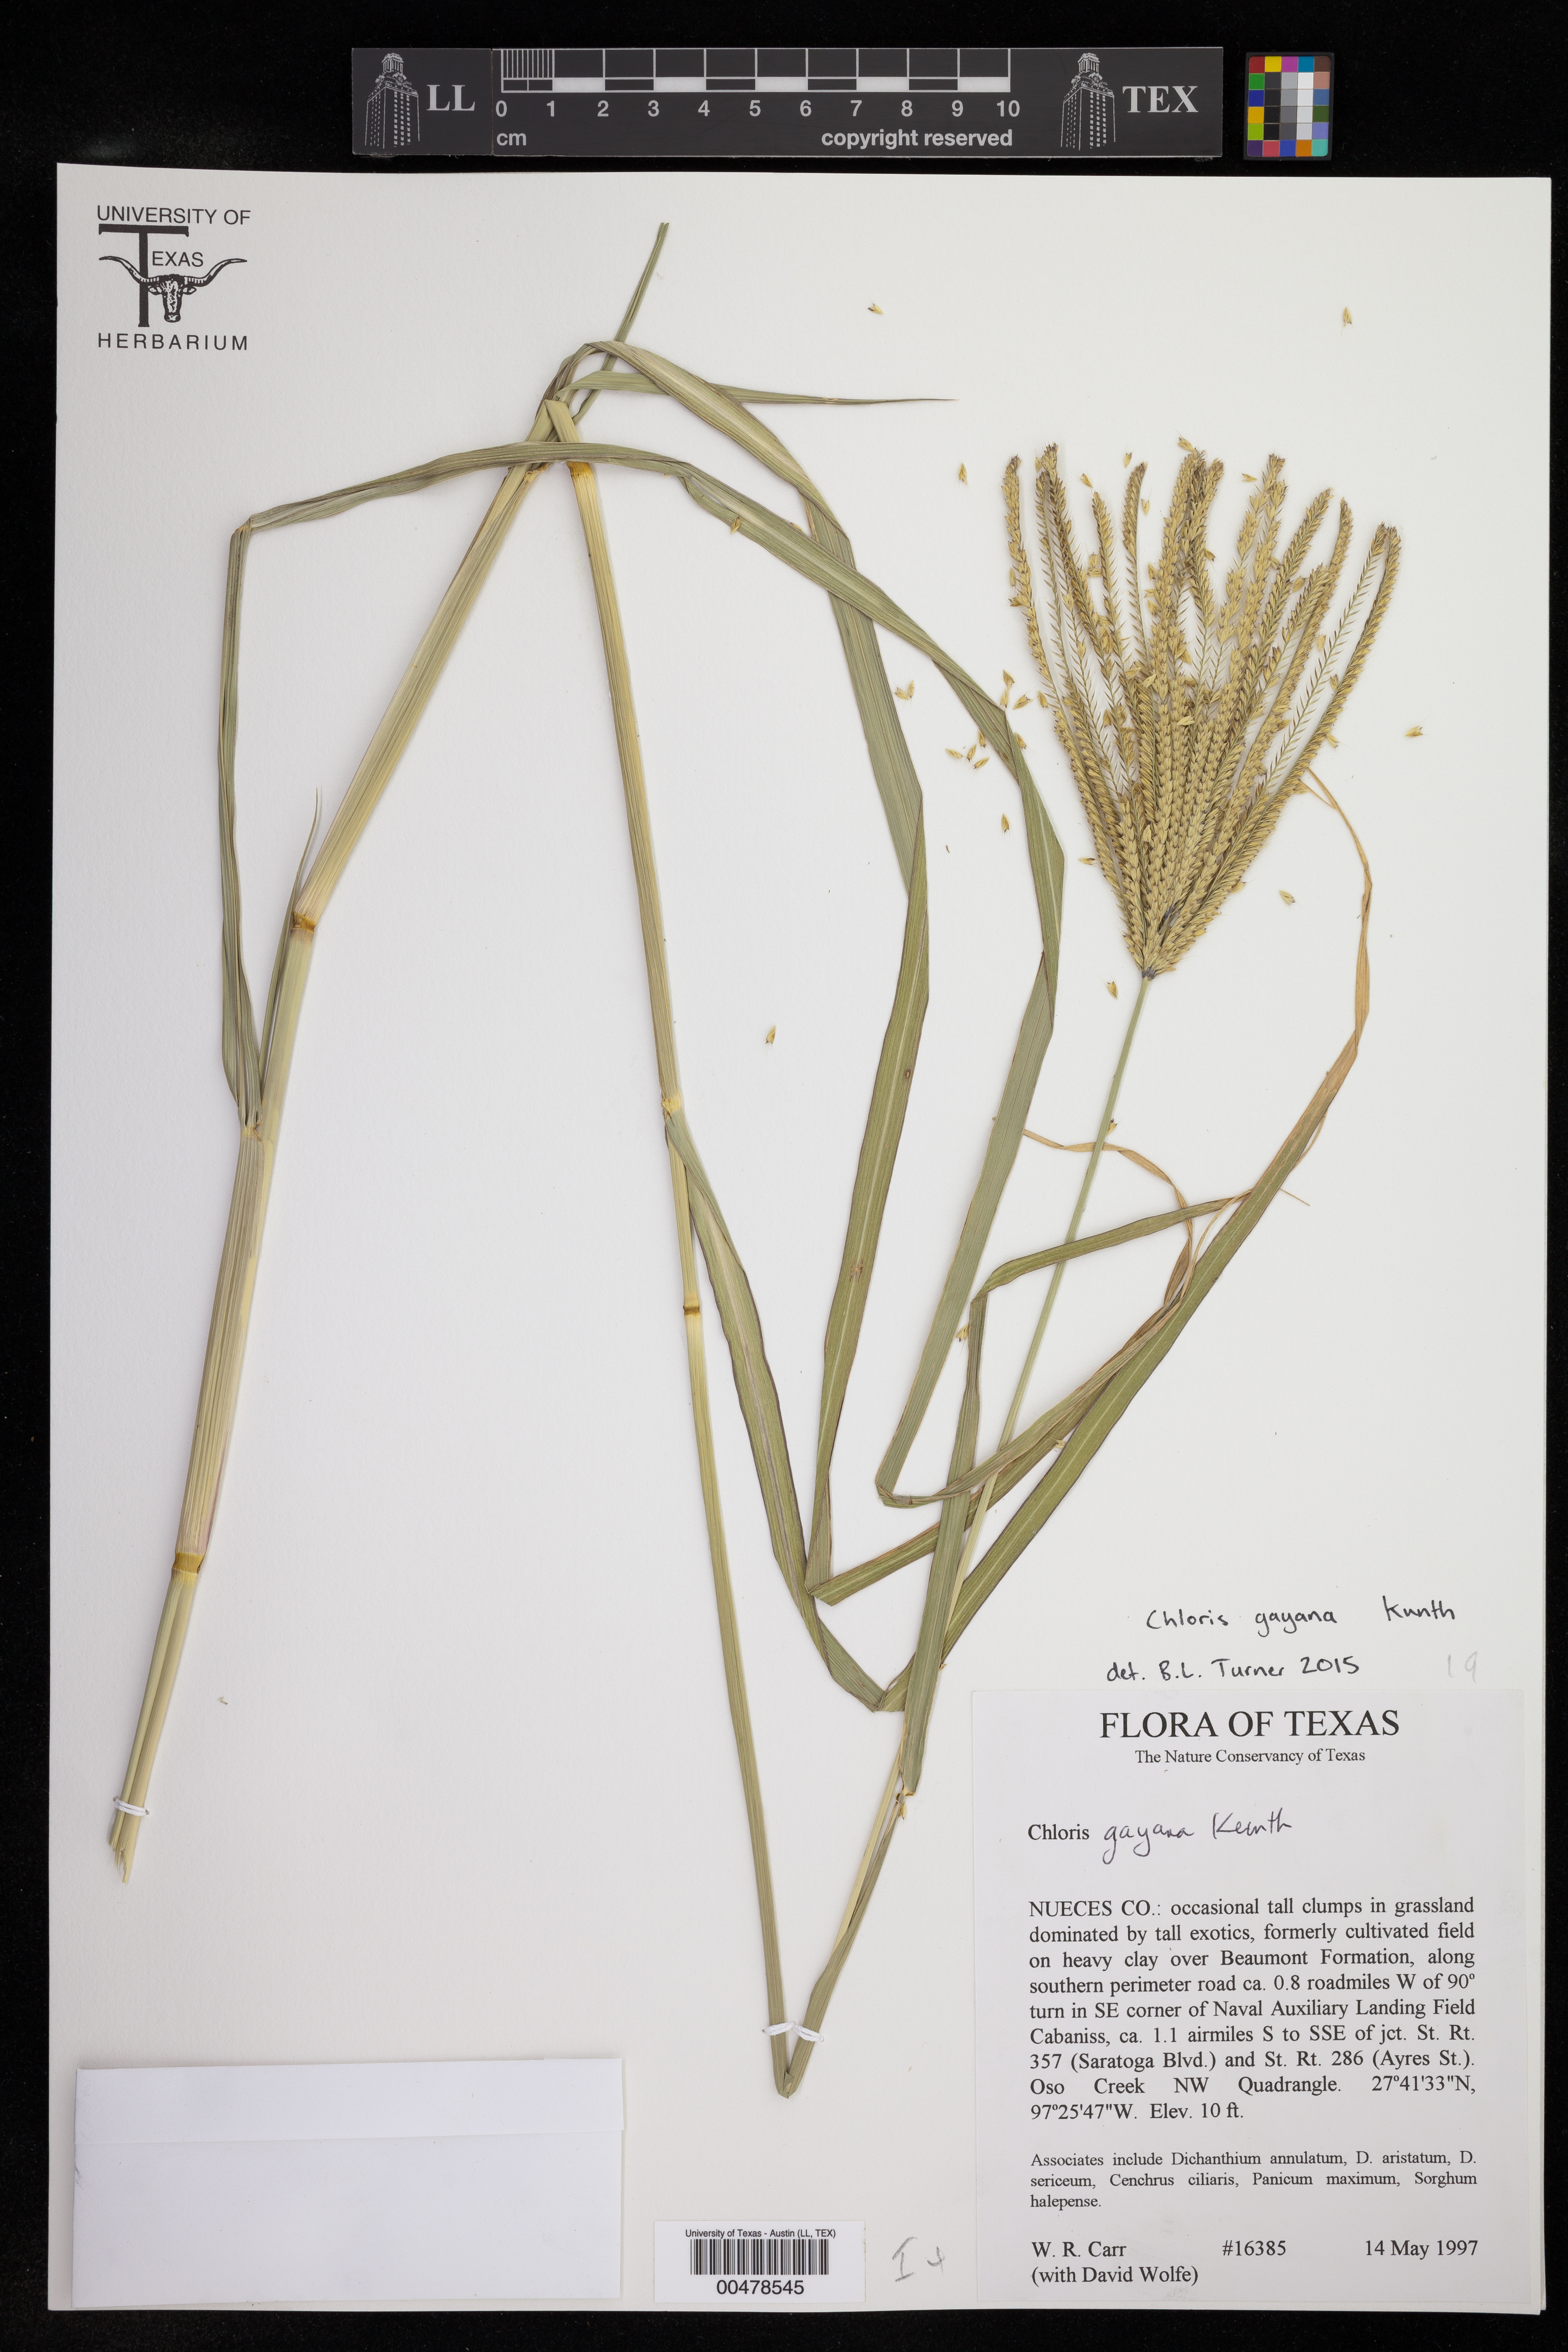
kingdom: Plantae
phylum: Tracheophyta
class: Liliopsida
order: Poales
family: Poaceae
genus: Chloris
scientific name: Chloris gayana
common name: Rhodes grass
